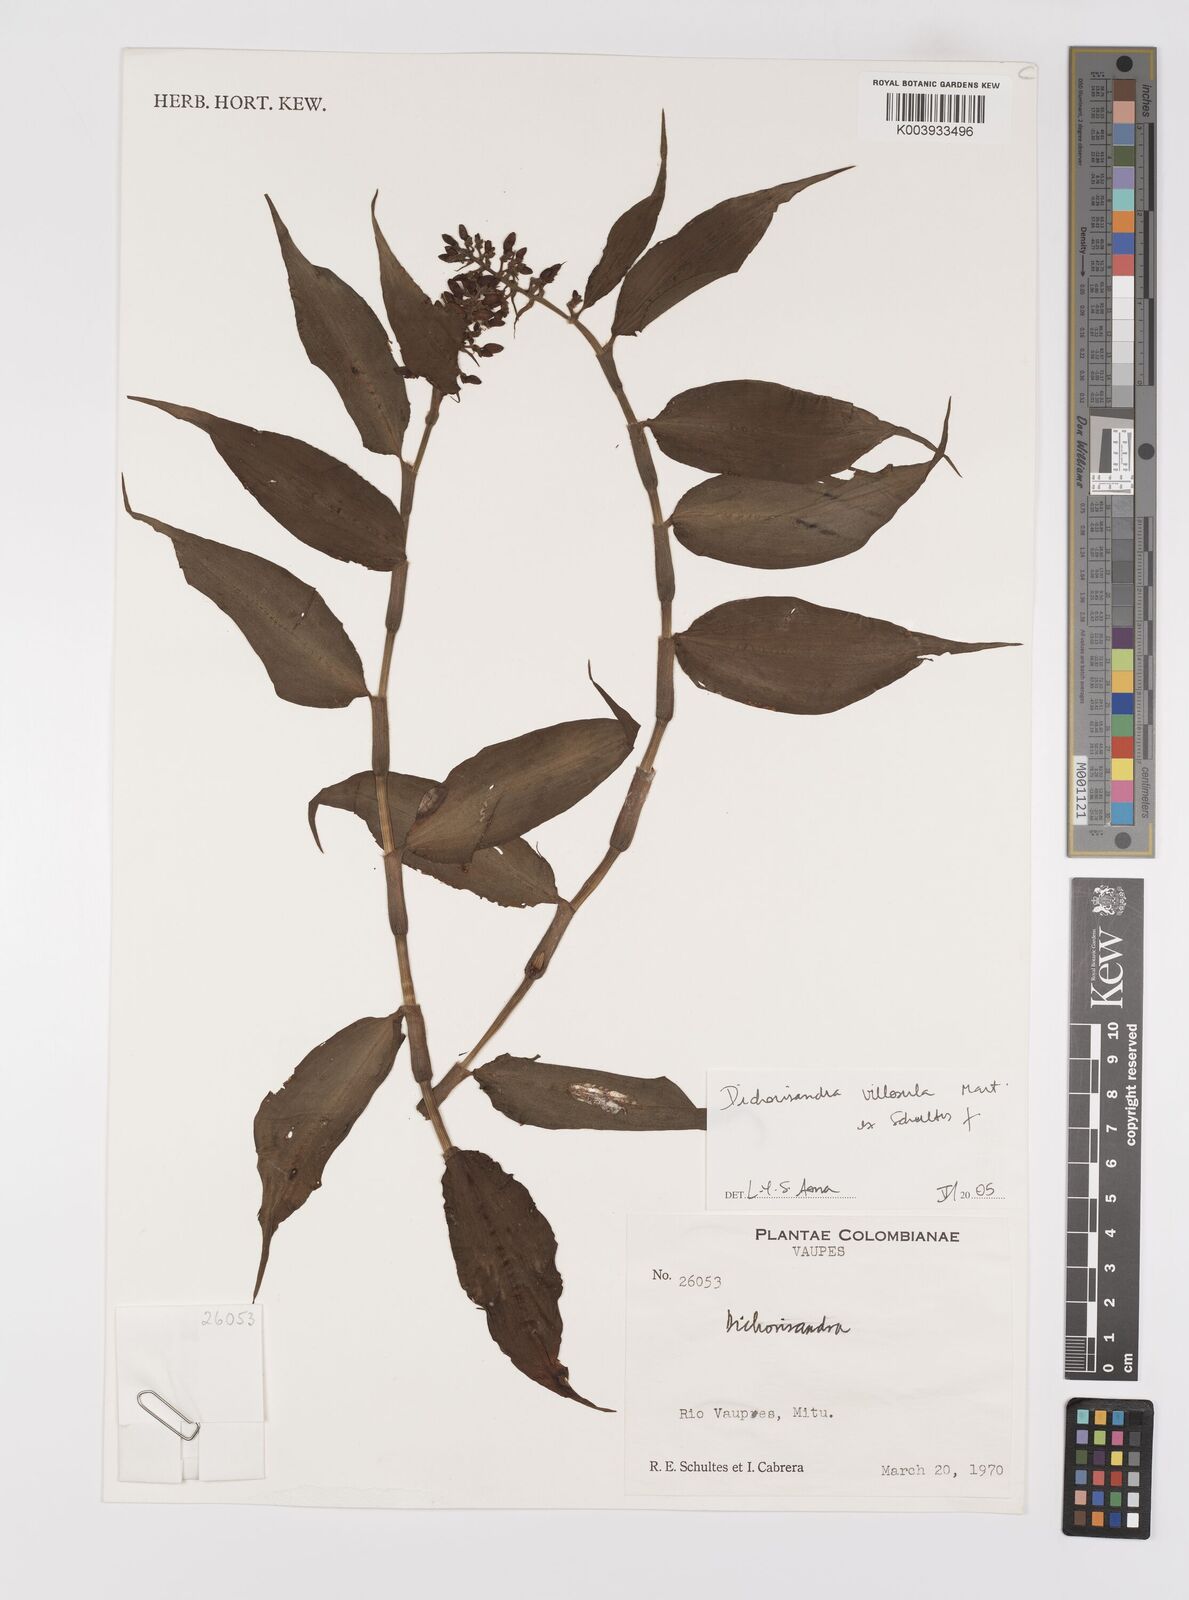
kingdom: Plantae
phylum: Tracheophyta
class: Liliopsida
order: Commelinales
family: Commelinaceae
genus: Dichorisandra
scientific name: Dichorisandra villosula
